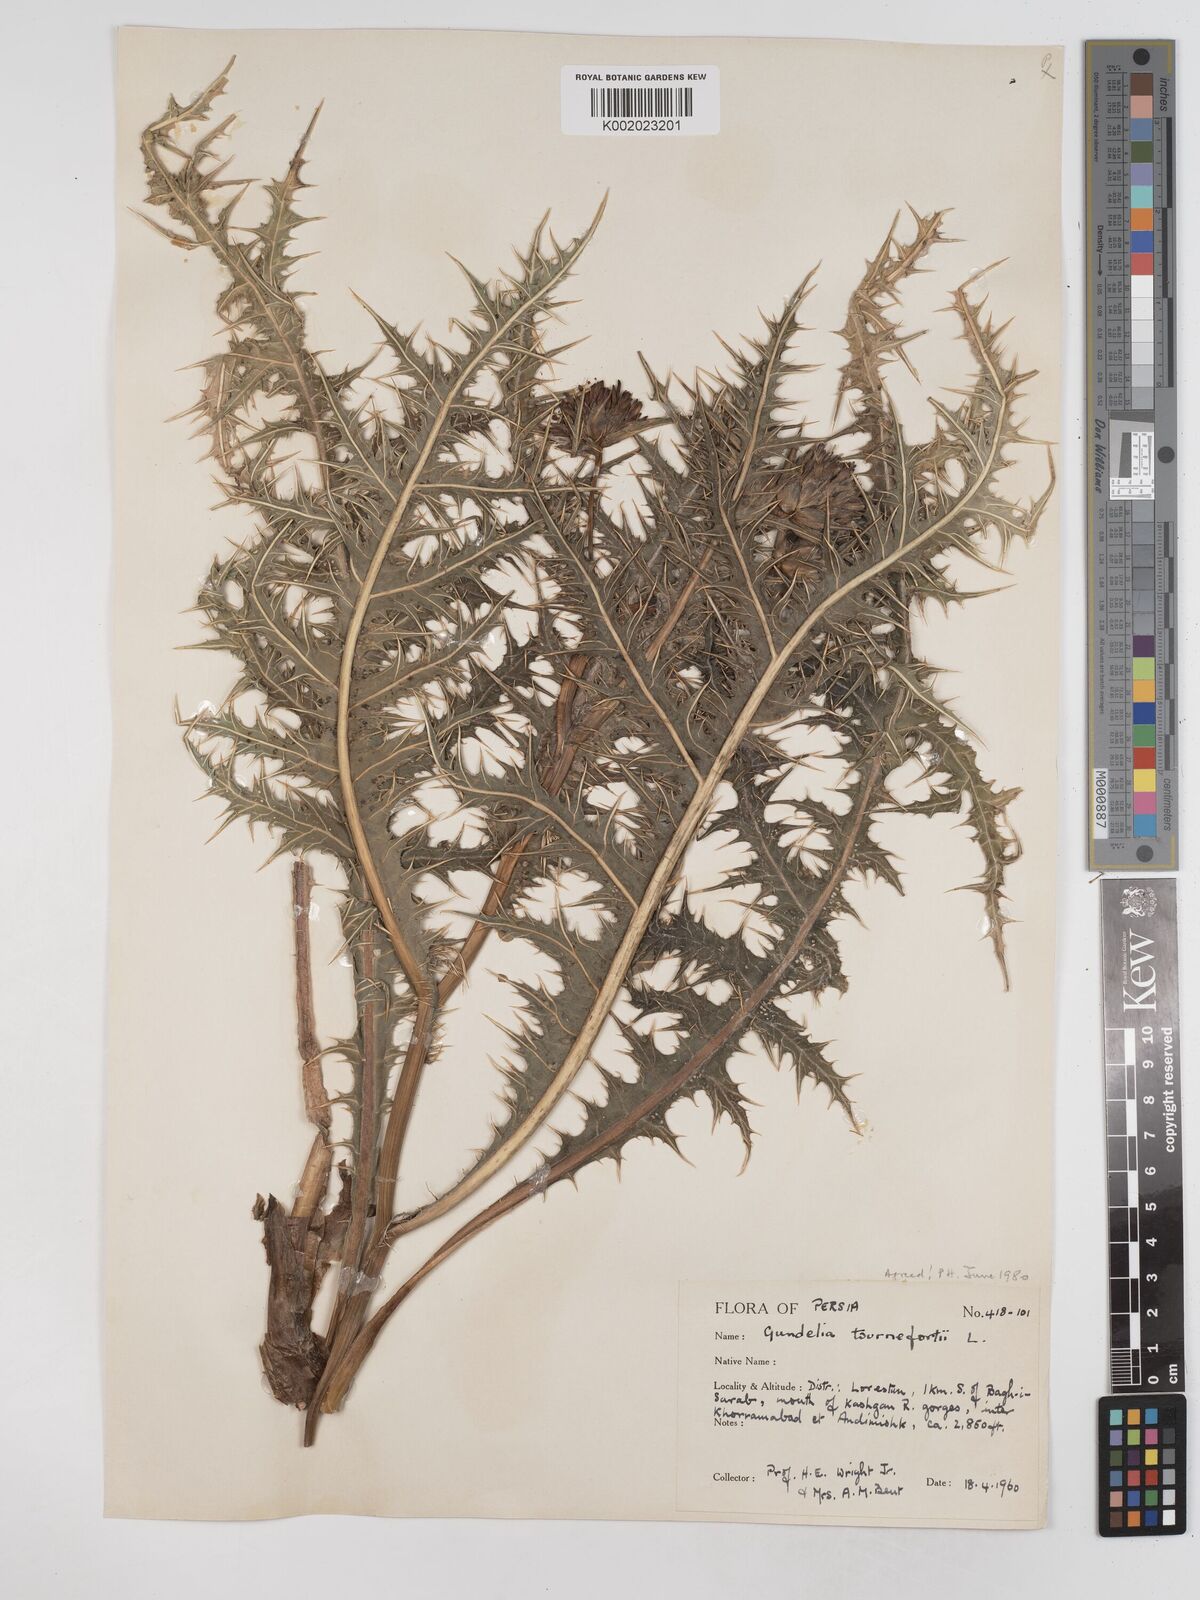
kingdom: Plantae
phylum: Tracheophyta
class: Magnoliopsida
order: Asterales
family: Asteraceae
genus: Gundelia
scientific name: Gundelia tournefortii
